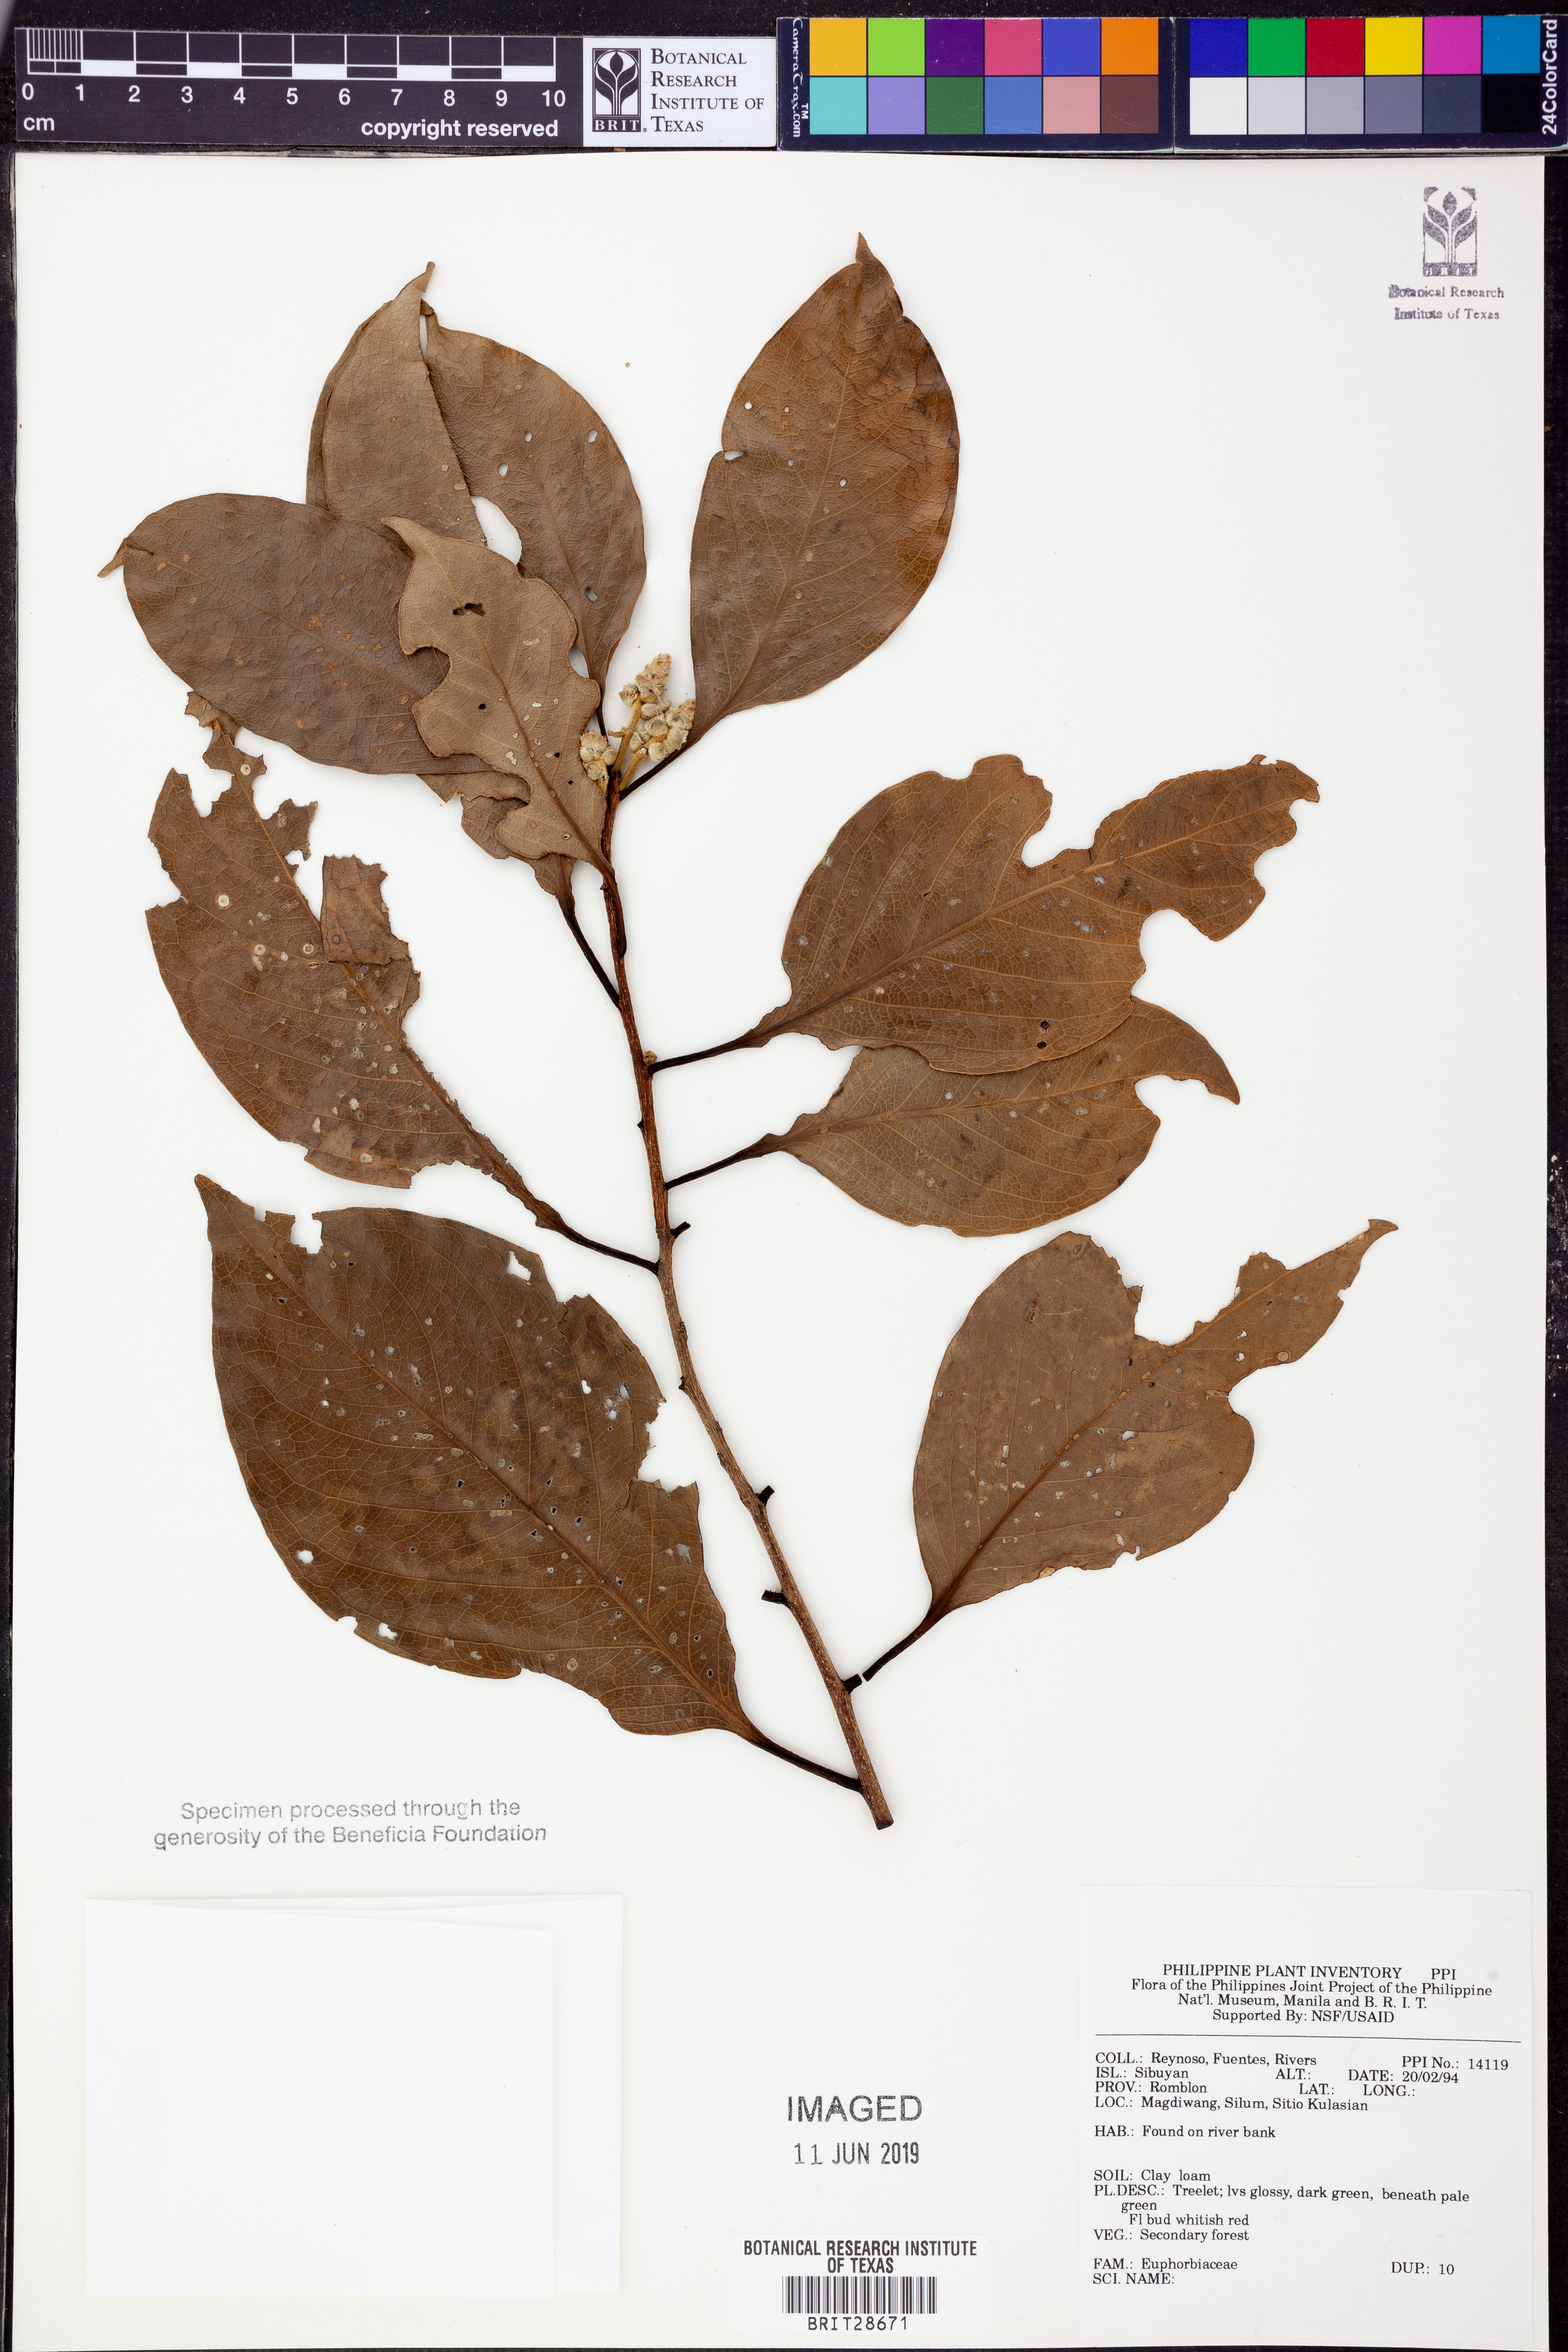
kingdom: Plantae
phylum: Tracheophyta
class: Magnoliopsida
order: Malpighiales
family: Euphorbiaceae
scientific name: Euphorbiaceae
